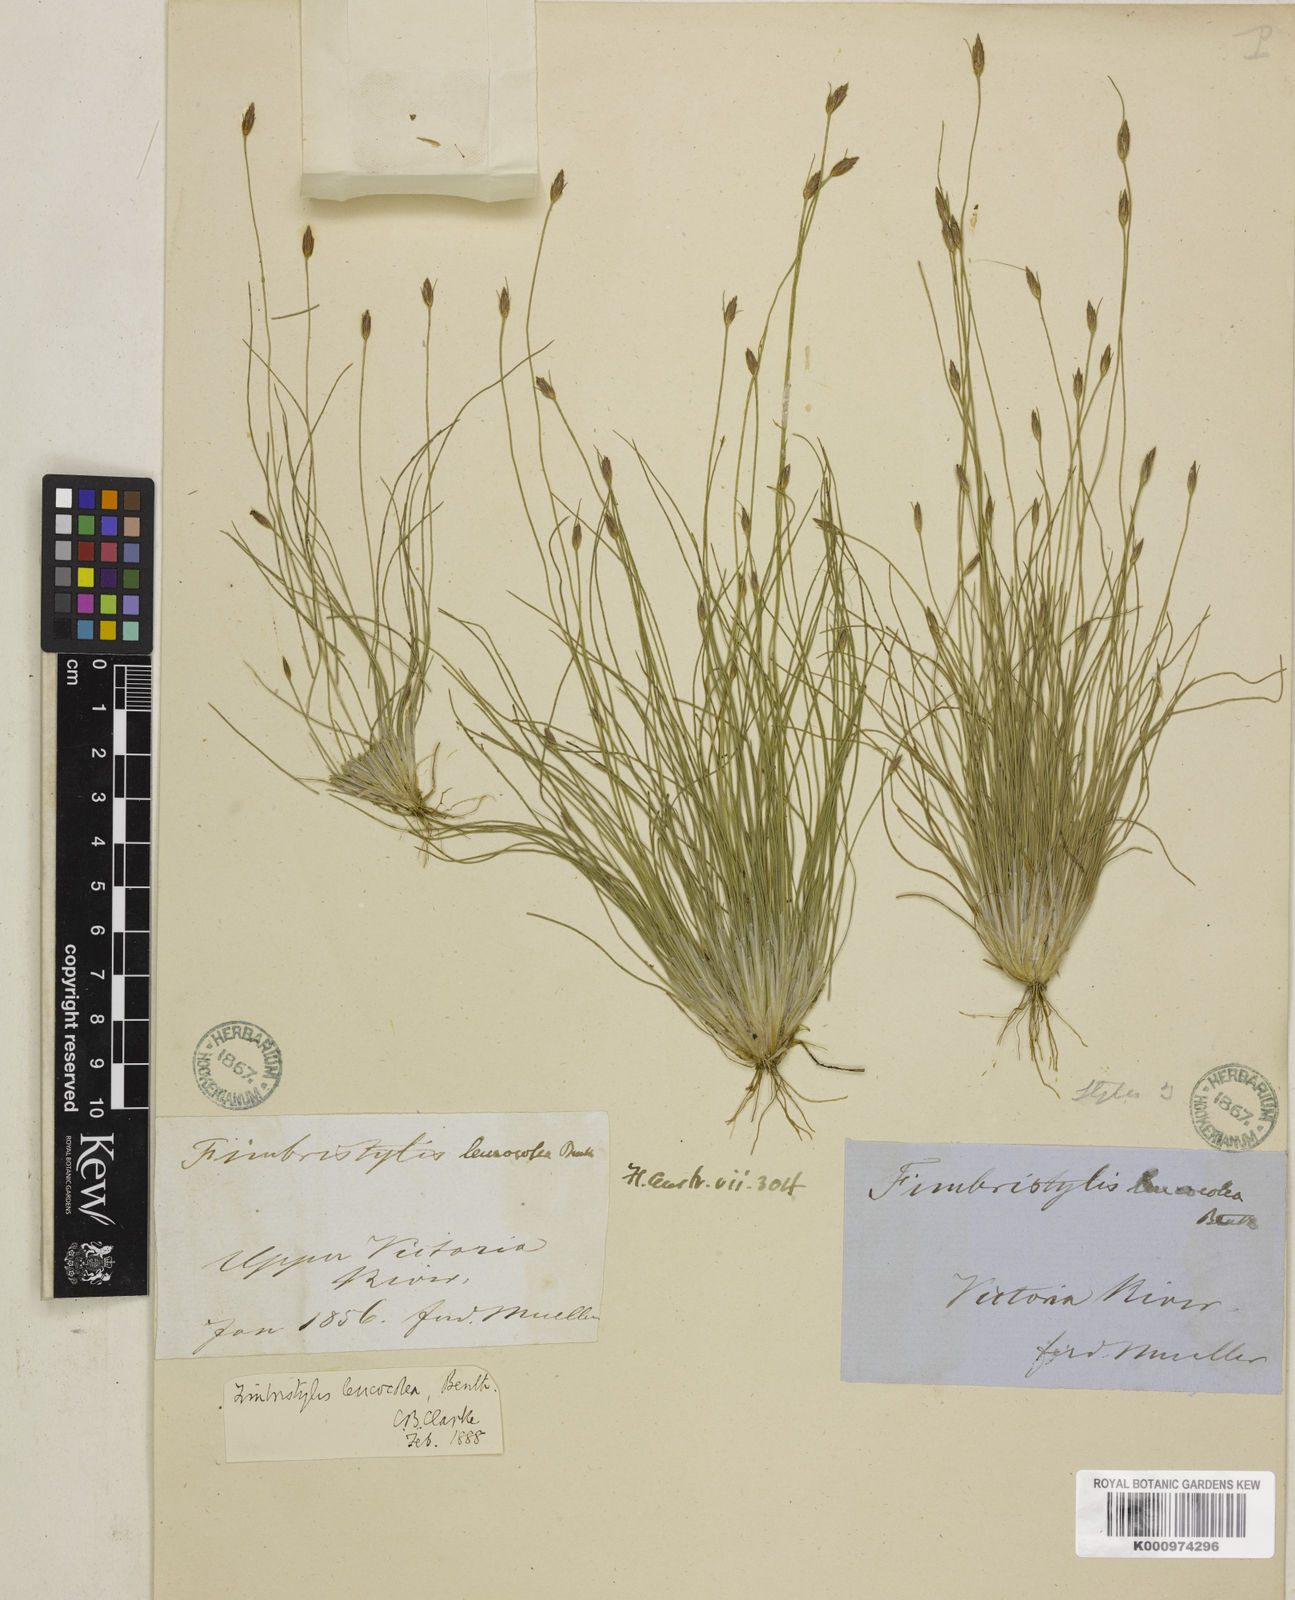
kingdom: Plantae
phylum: Tracheophyta
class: Liliopsida
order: Poales
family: Cyperaceae
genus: Fimbristylis
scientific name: Fimbristylis leucocolea
